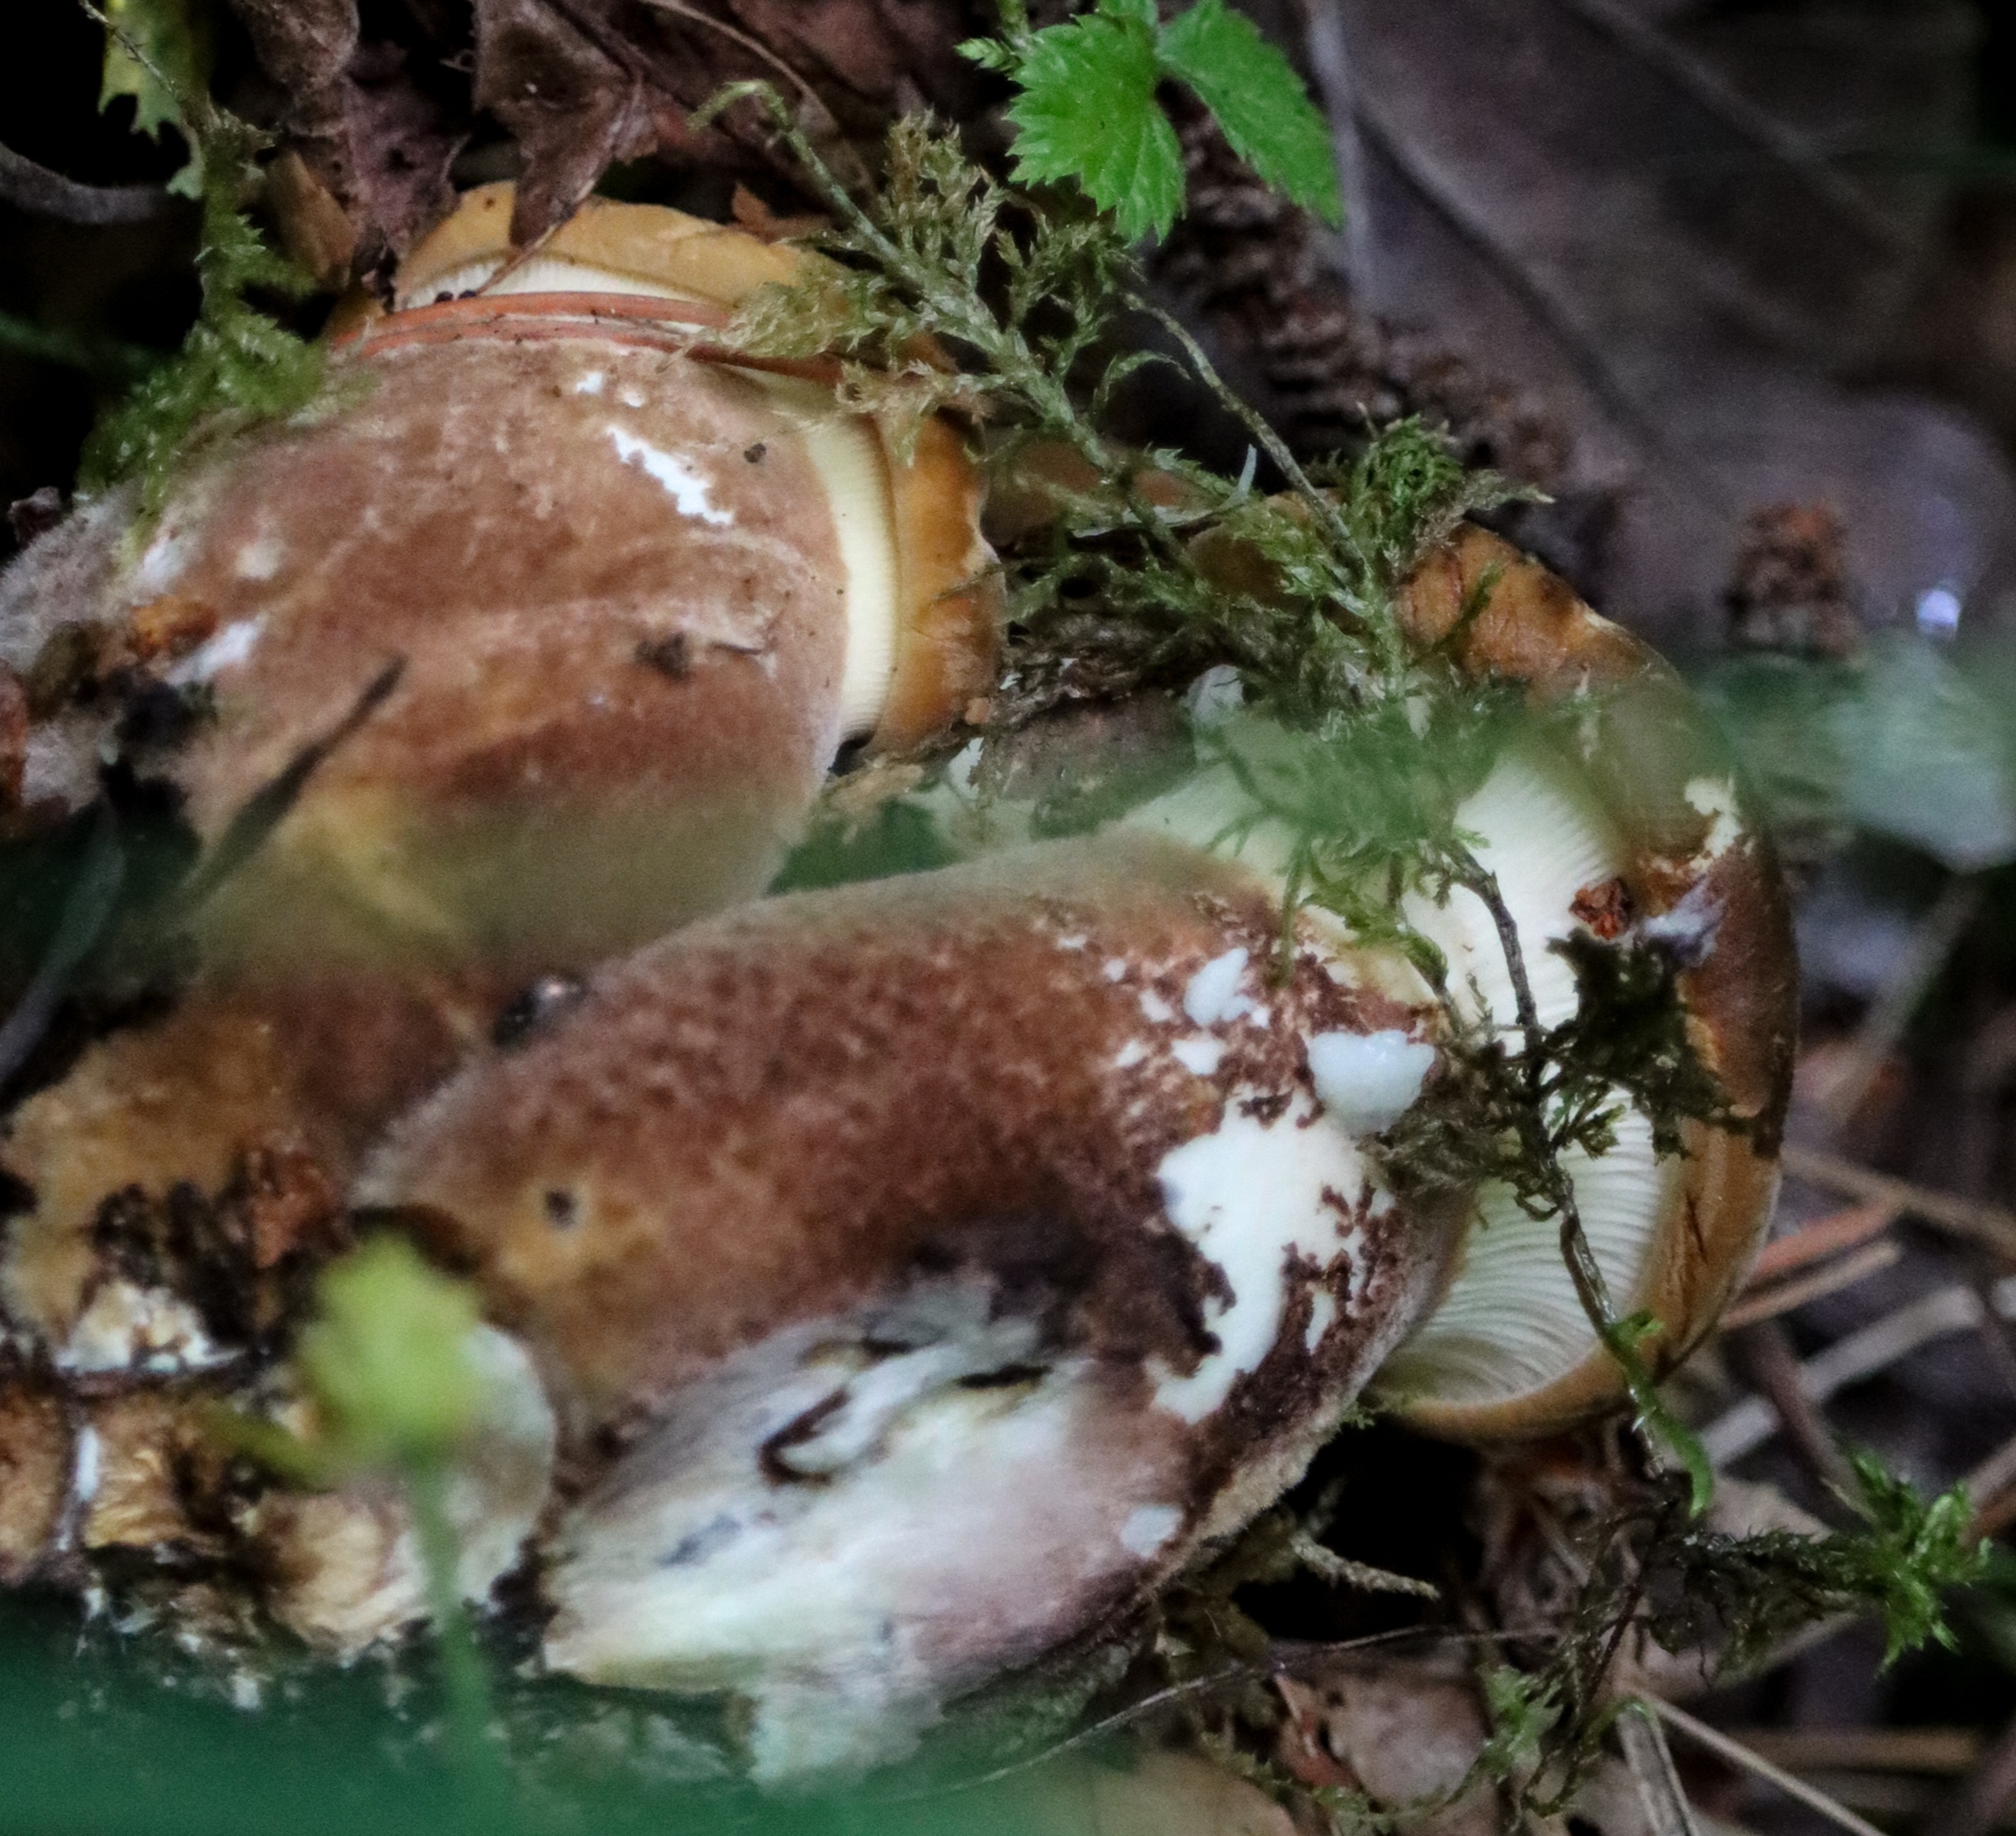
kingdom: Fungi
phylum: Basidiomycota
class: Agaricomycetes
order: Boletales
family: Tapinellaceae
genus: Tapinella
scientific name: Tapinella atrotomentosa
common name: Sortfiltet viftesvamp
